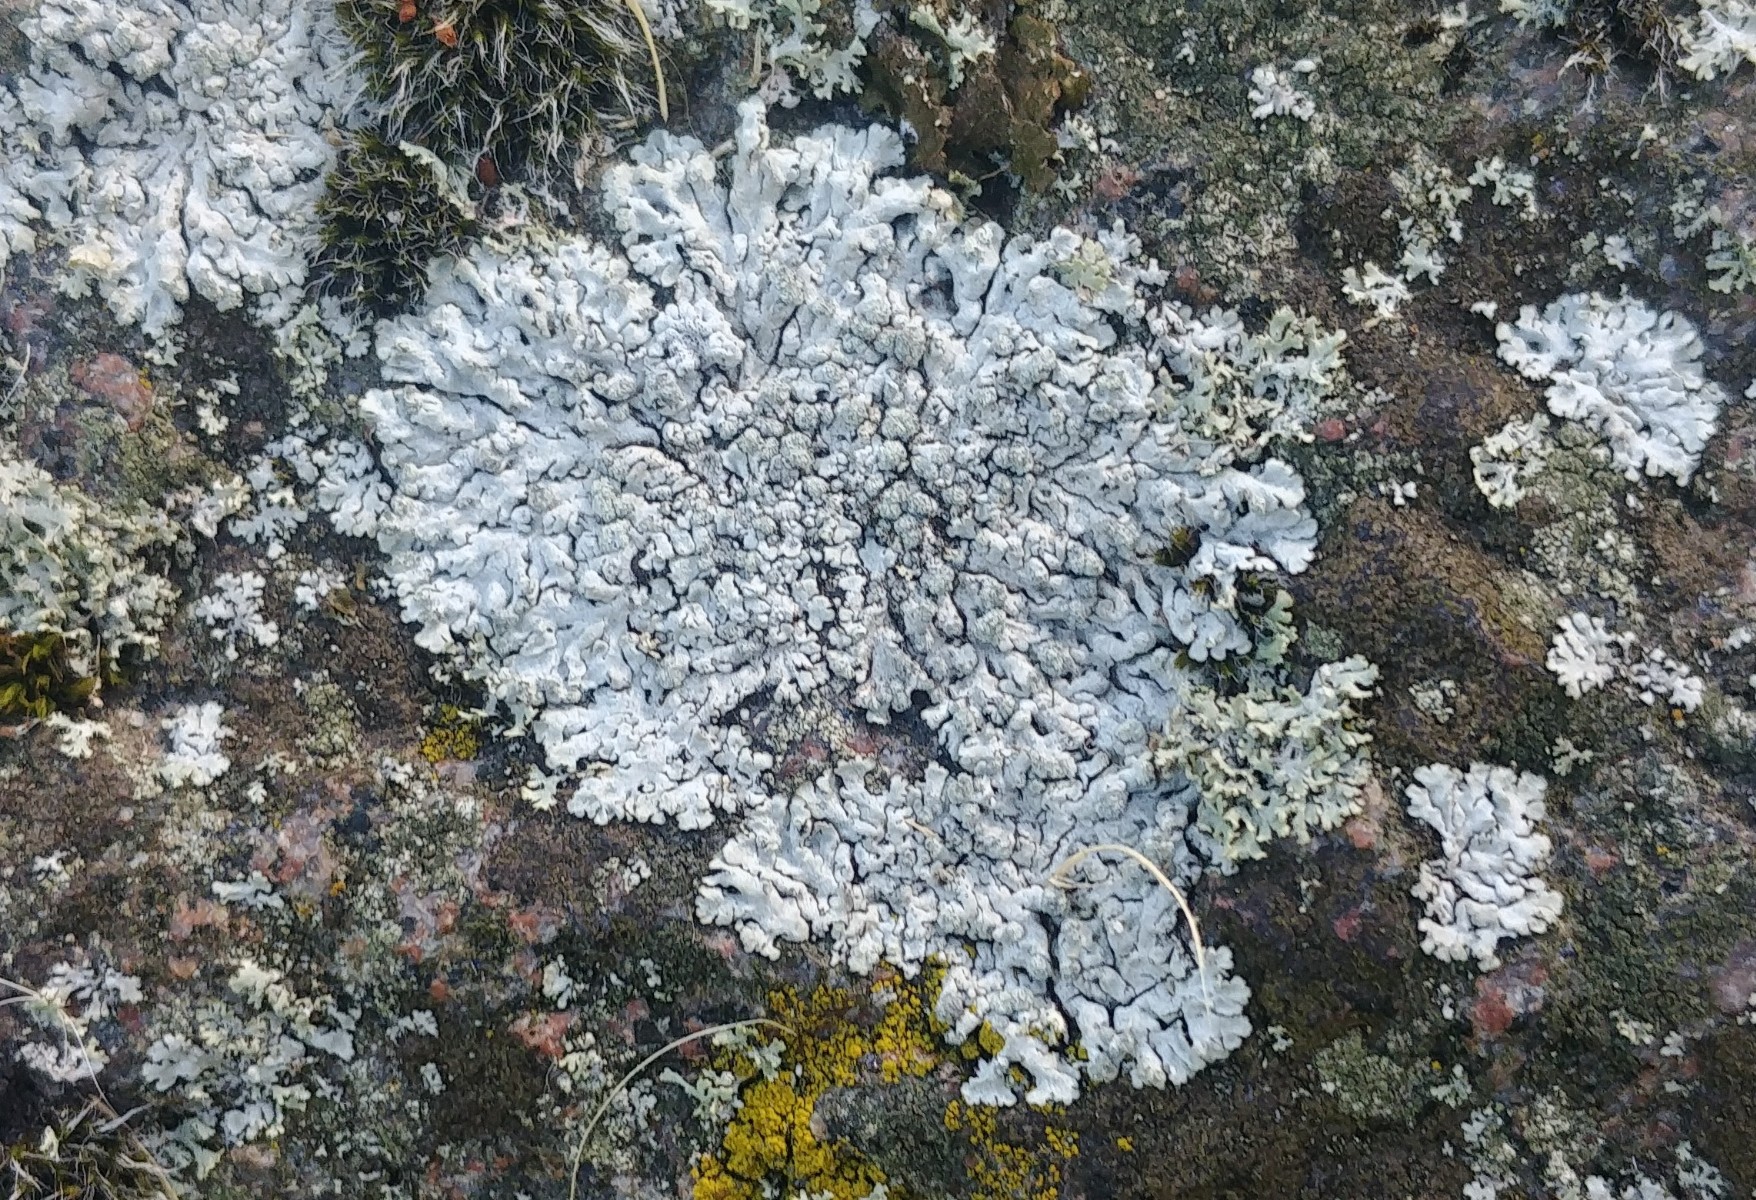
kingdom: Fungi
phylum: Ascomycota
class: Lecanoromycetes
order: Caliciales
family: Physciaceae
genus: Physcia
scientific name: Physcia caesia
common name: blågrå rosetlav
